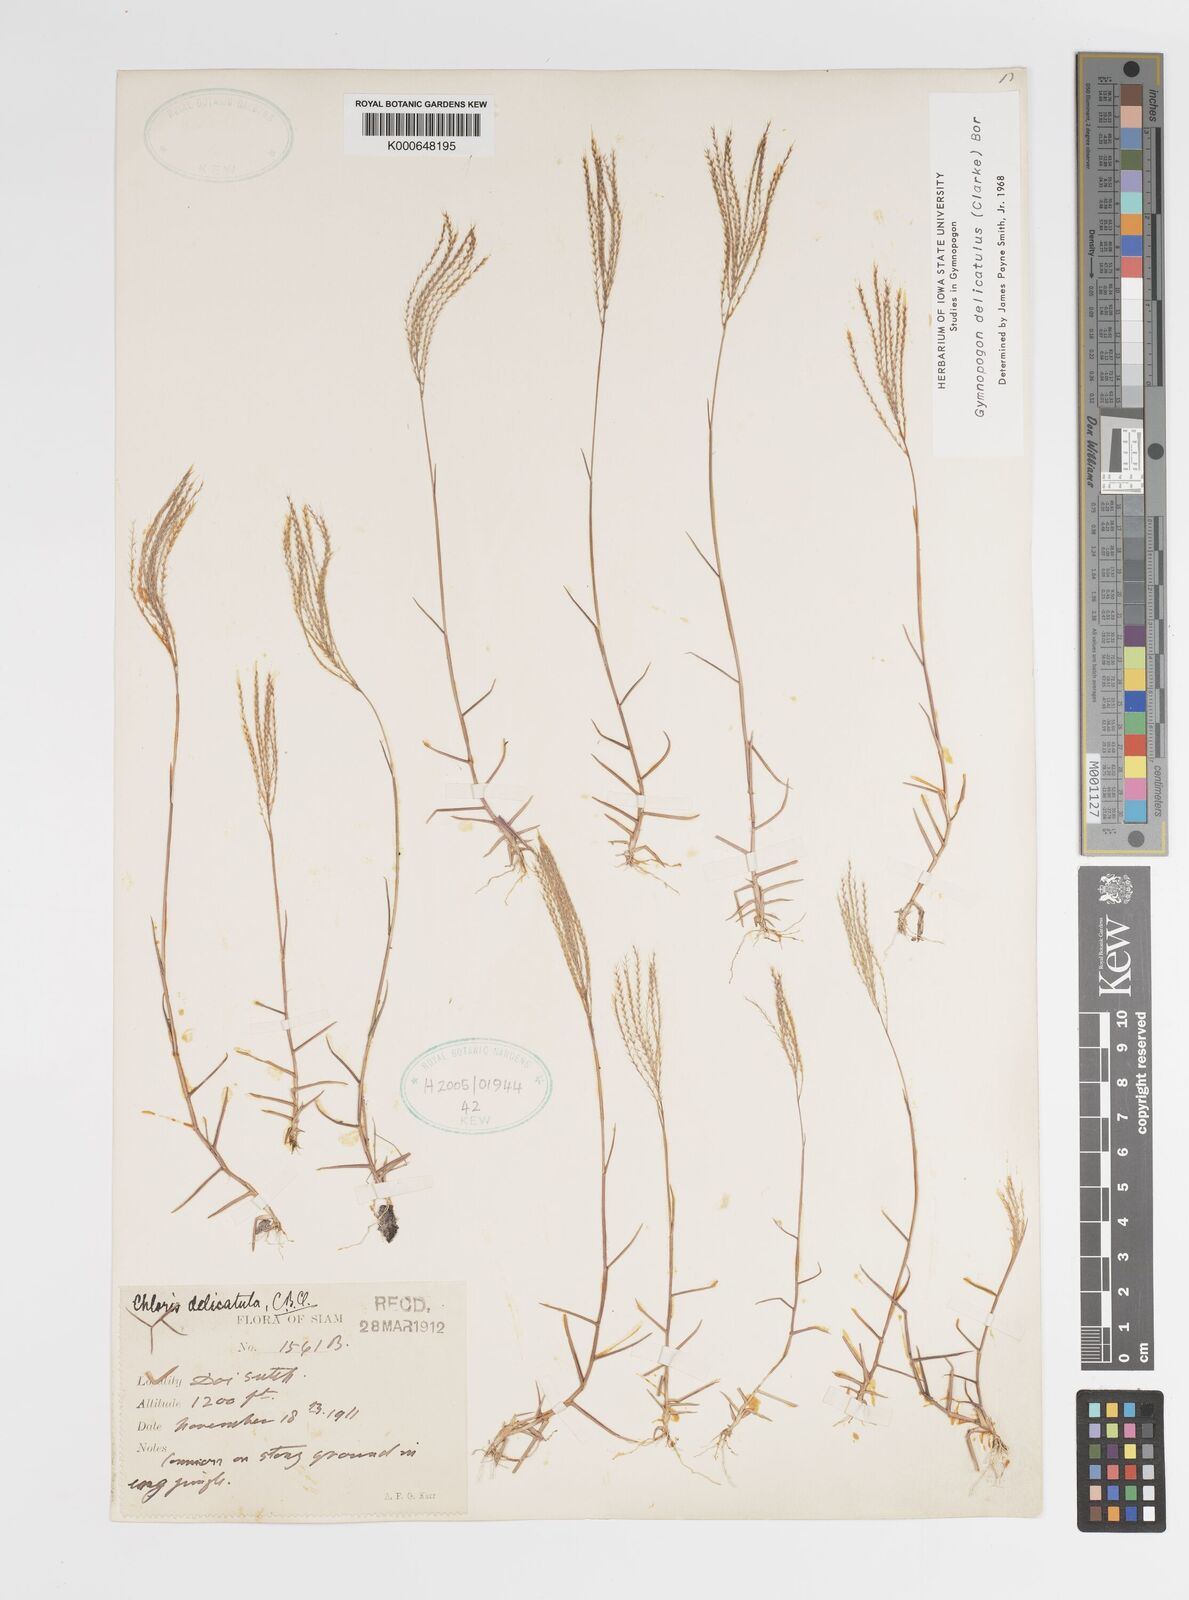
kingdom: Plantae
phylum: Tracheophyta
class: Liliopsida
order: Poales
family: Poaceae
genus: Gymnopogon
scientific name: Gymnopogon delicatulus
